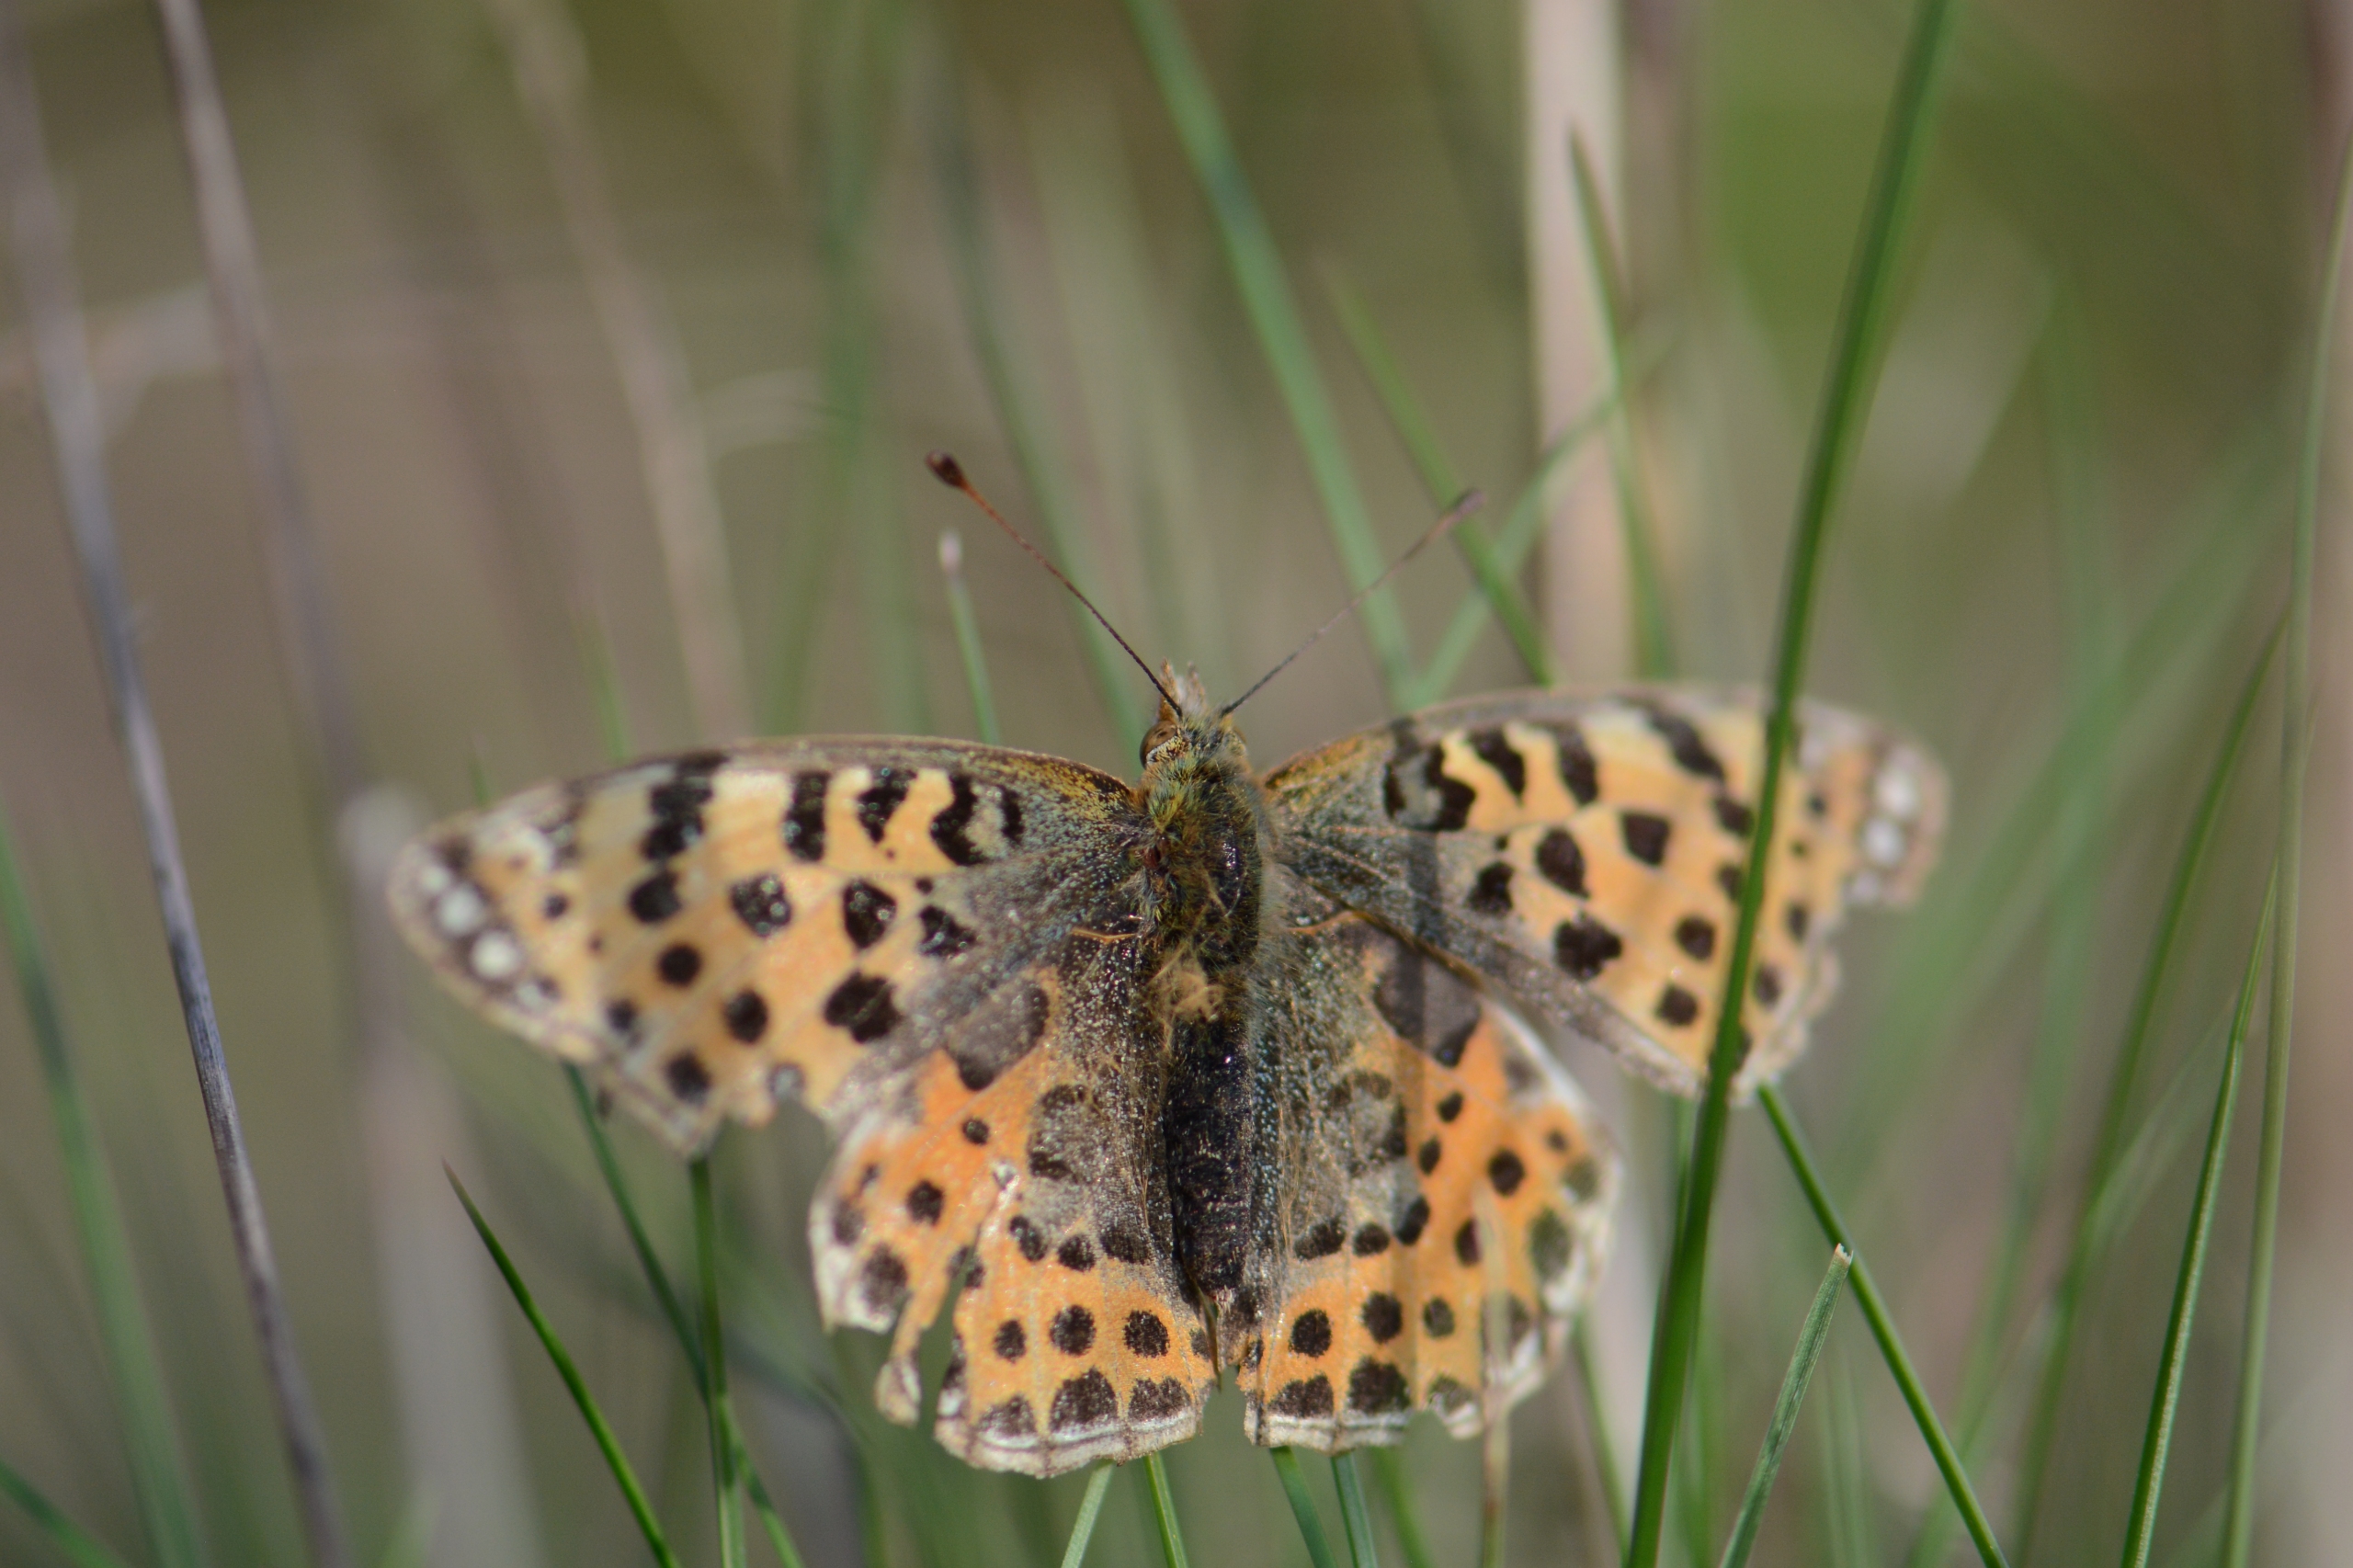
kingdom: Animalia
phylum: Arthropoda
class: Insecta
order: Lepidoptera
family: Nymphalidae
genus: Issoria
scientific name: Issoria lathonia
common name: Storplettet perlemorsommerfugl
